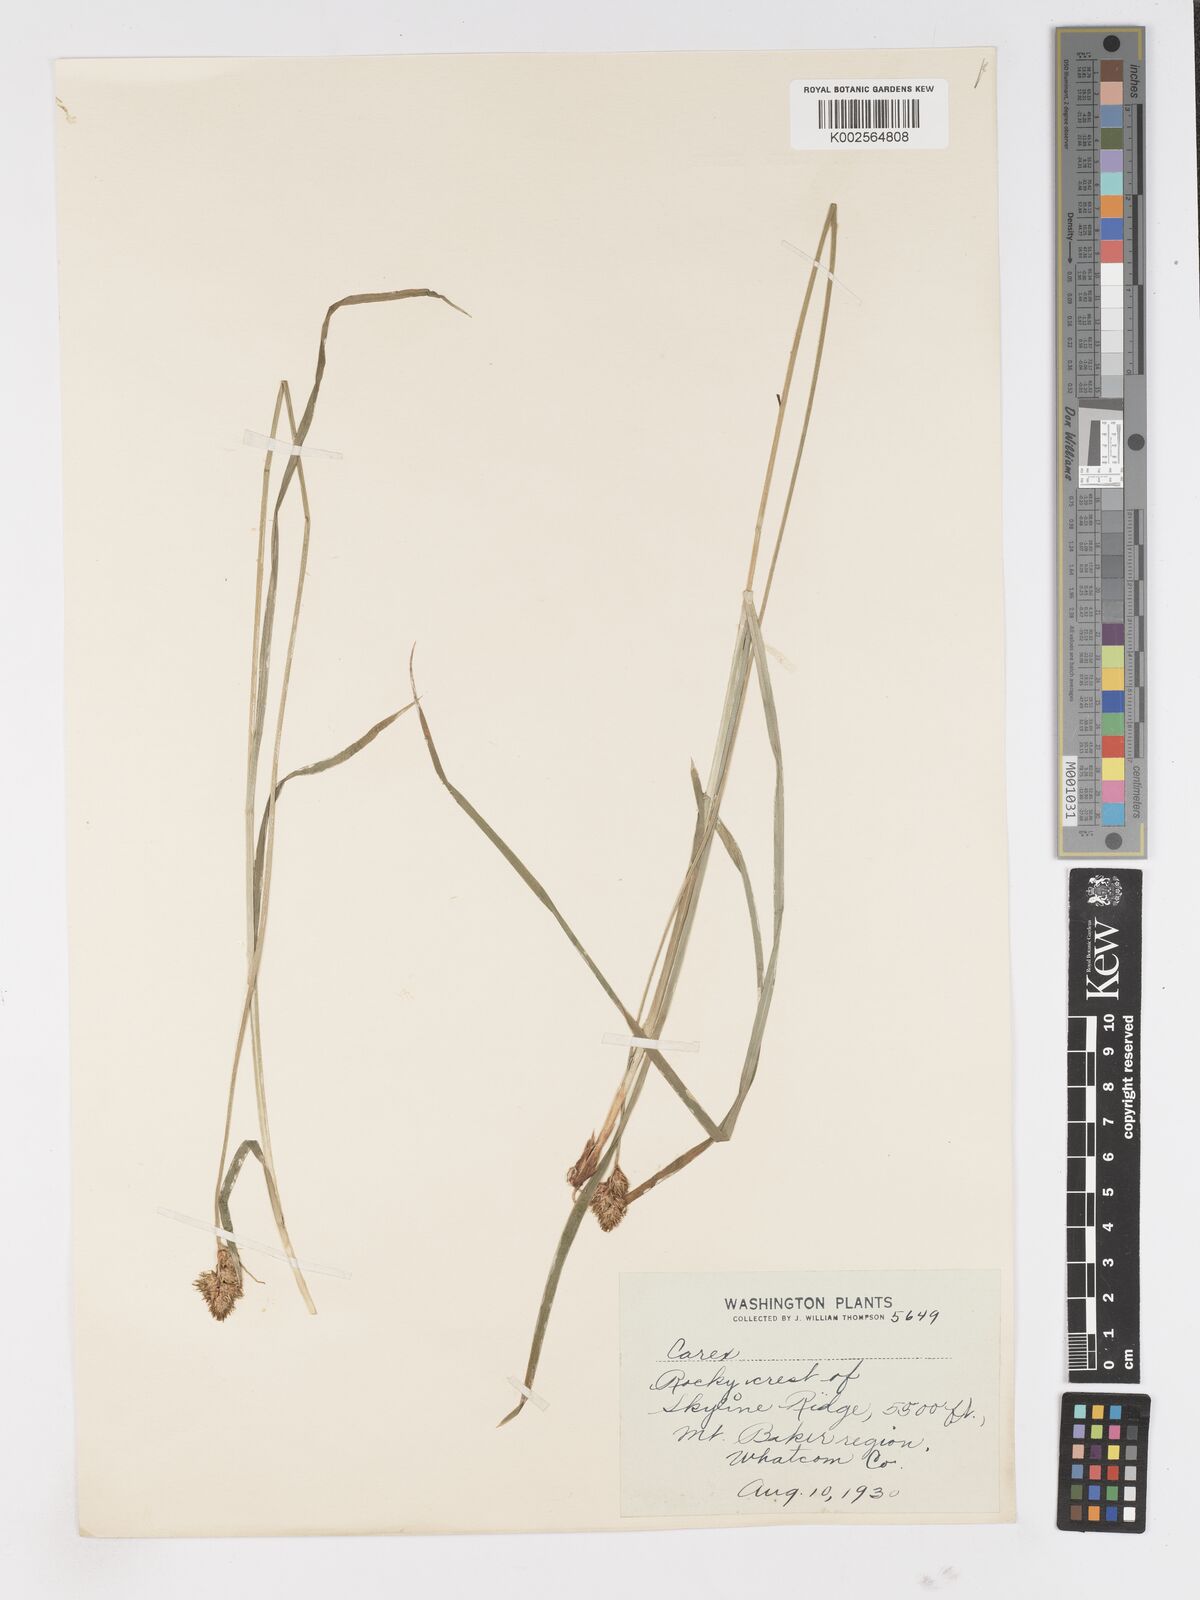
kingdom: Plantae
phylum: Tracheophyta
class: Liliopsida
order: Poales
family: Cyperaceae
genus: Carex
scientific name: Carex
